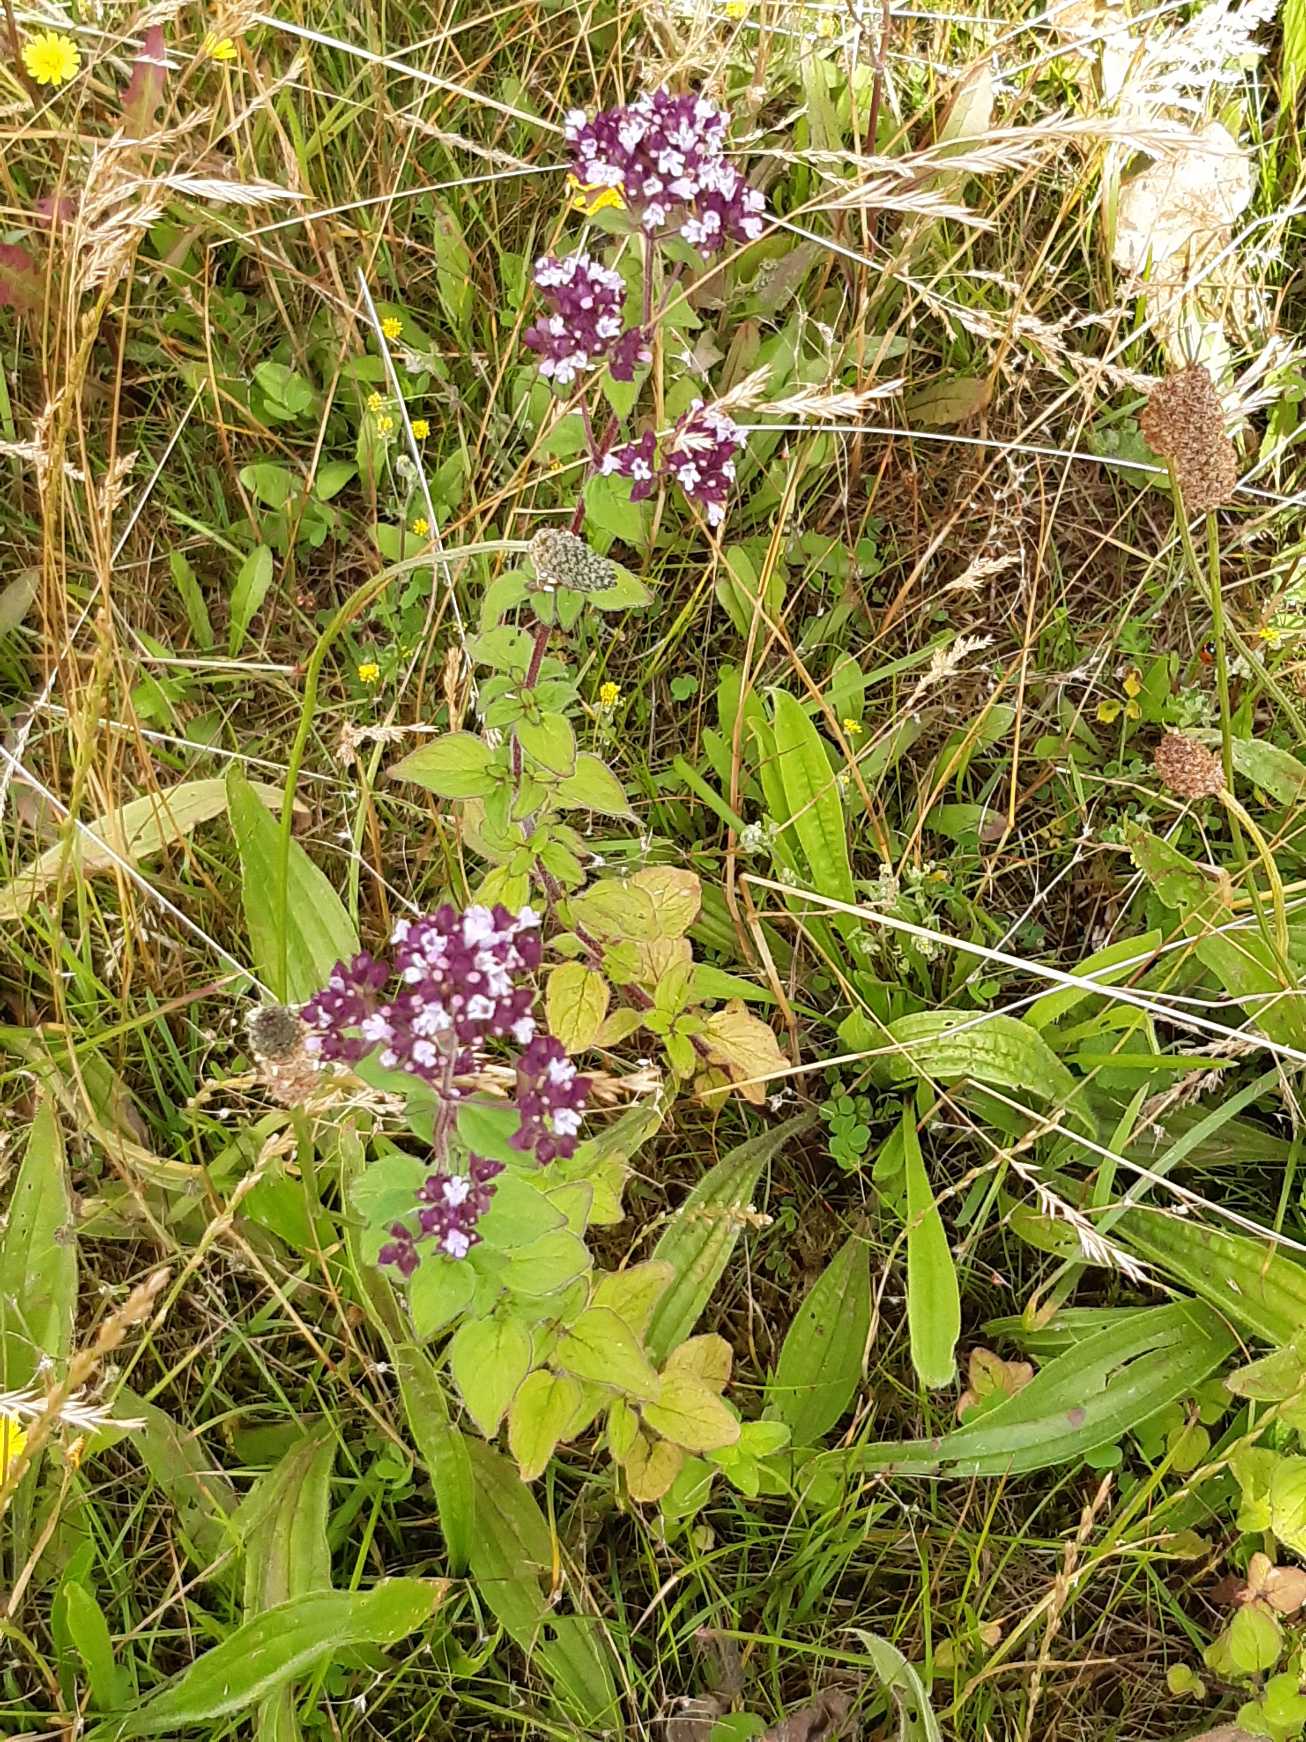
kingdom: Plantae
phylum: Tracheophyta
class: Magnoliopsida
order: Lamiales
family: Lamiaceae
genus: Origanum
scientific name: Origanum vulgare
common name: Merian
